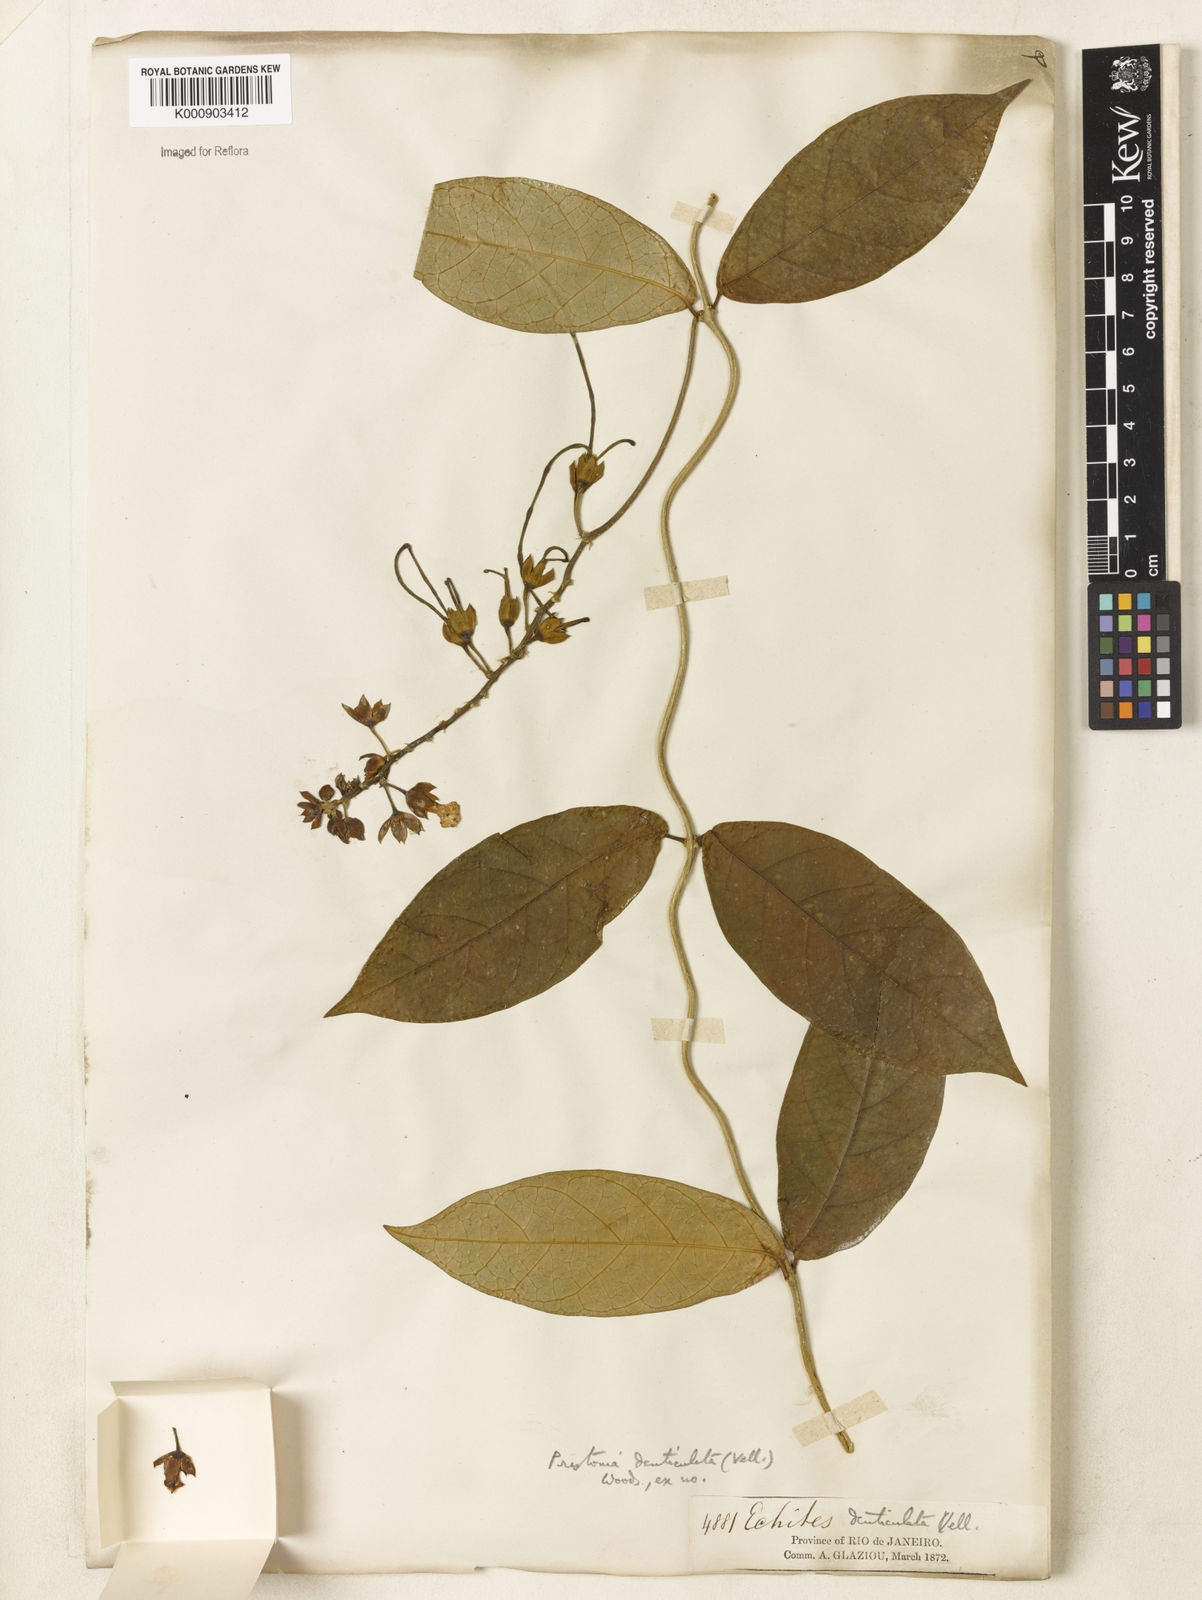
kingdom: Plantae
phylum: Tracheophyta
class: Magnoliopsida
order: Gentianales
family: Apocynaceae
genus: Prestonia
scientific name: Prestonia denticulata
